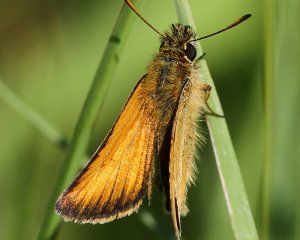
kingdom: Animalia
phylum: Arthropoda
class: Insecta
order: Lepidoptera
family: Hesperiidae
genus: Thymelicus
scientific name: Thymelicus lineola
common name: European Skipper
